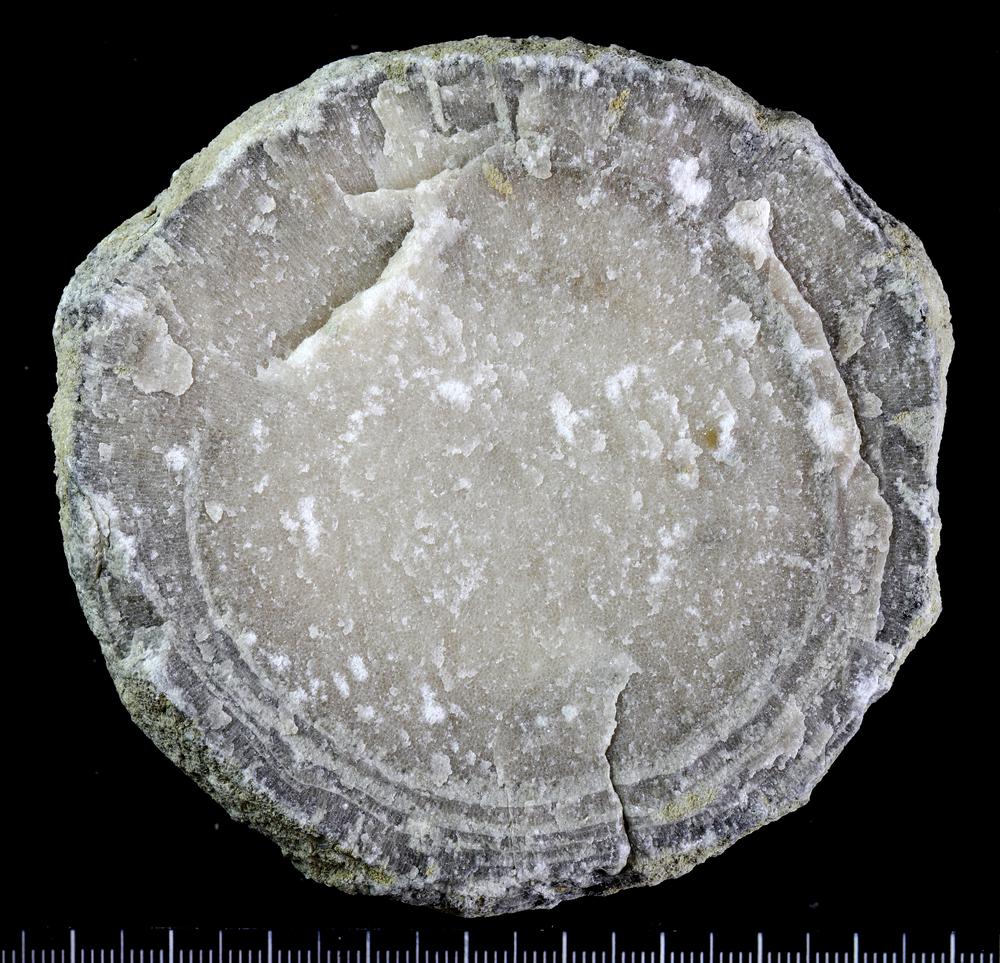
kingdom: Animalia
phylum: Bryozoa
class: Stenolaemata
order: Trepostomatida
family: Diplotrypidae
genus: Diplotrypa
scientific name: Diplotrypa petropolitana
